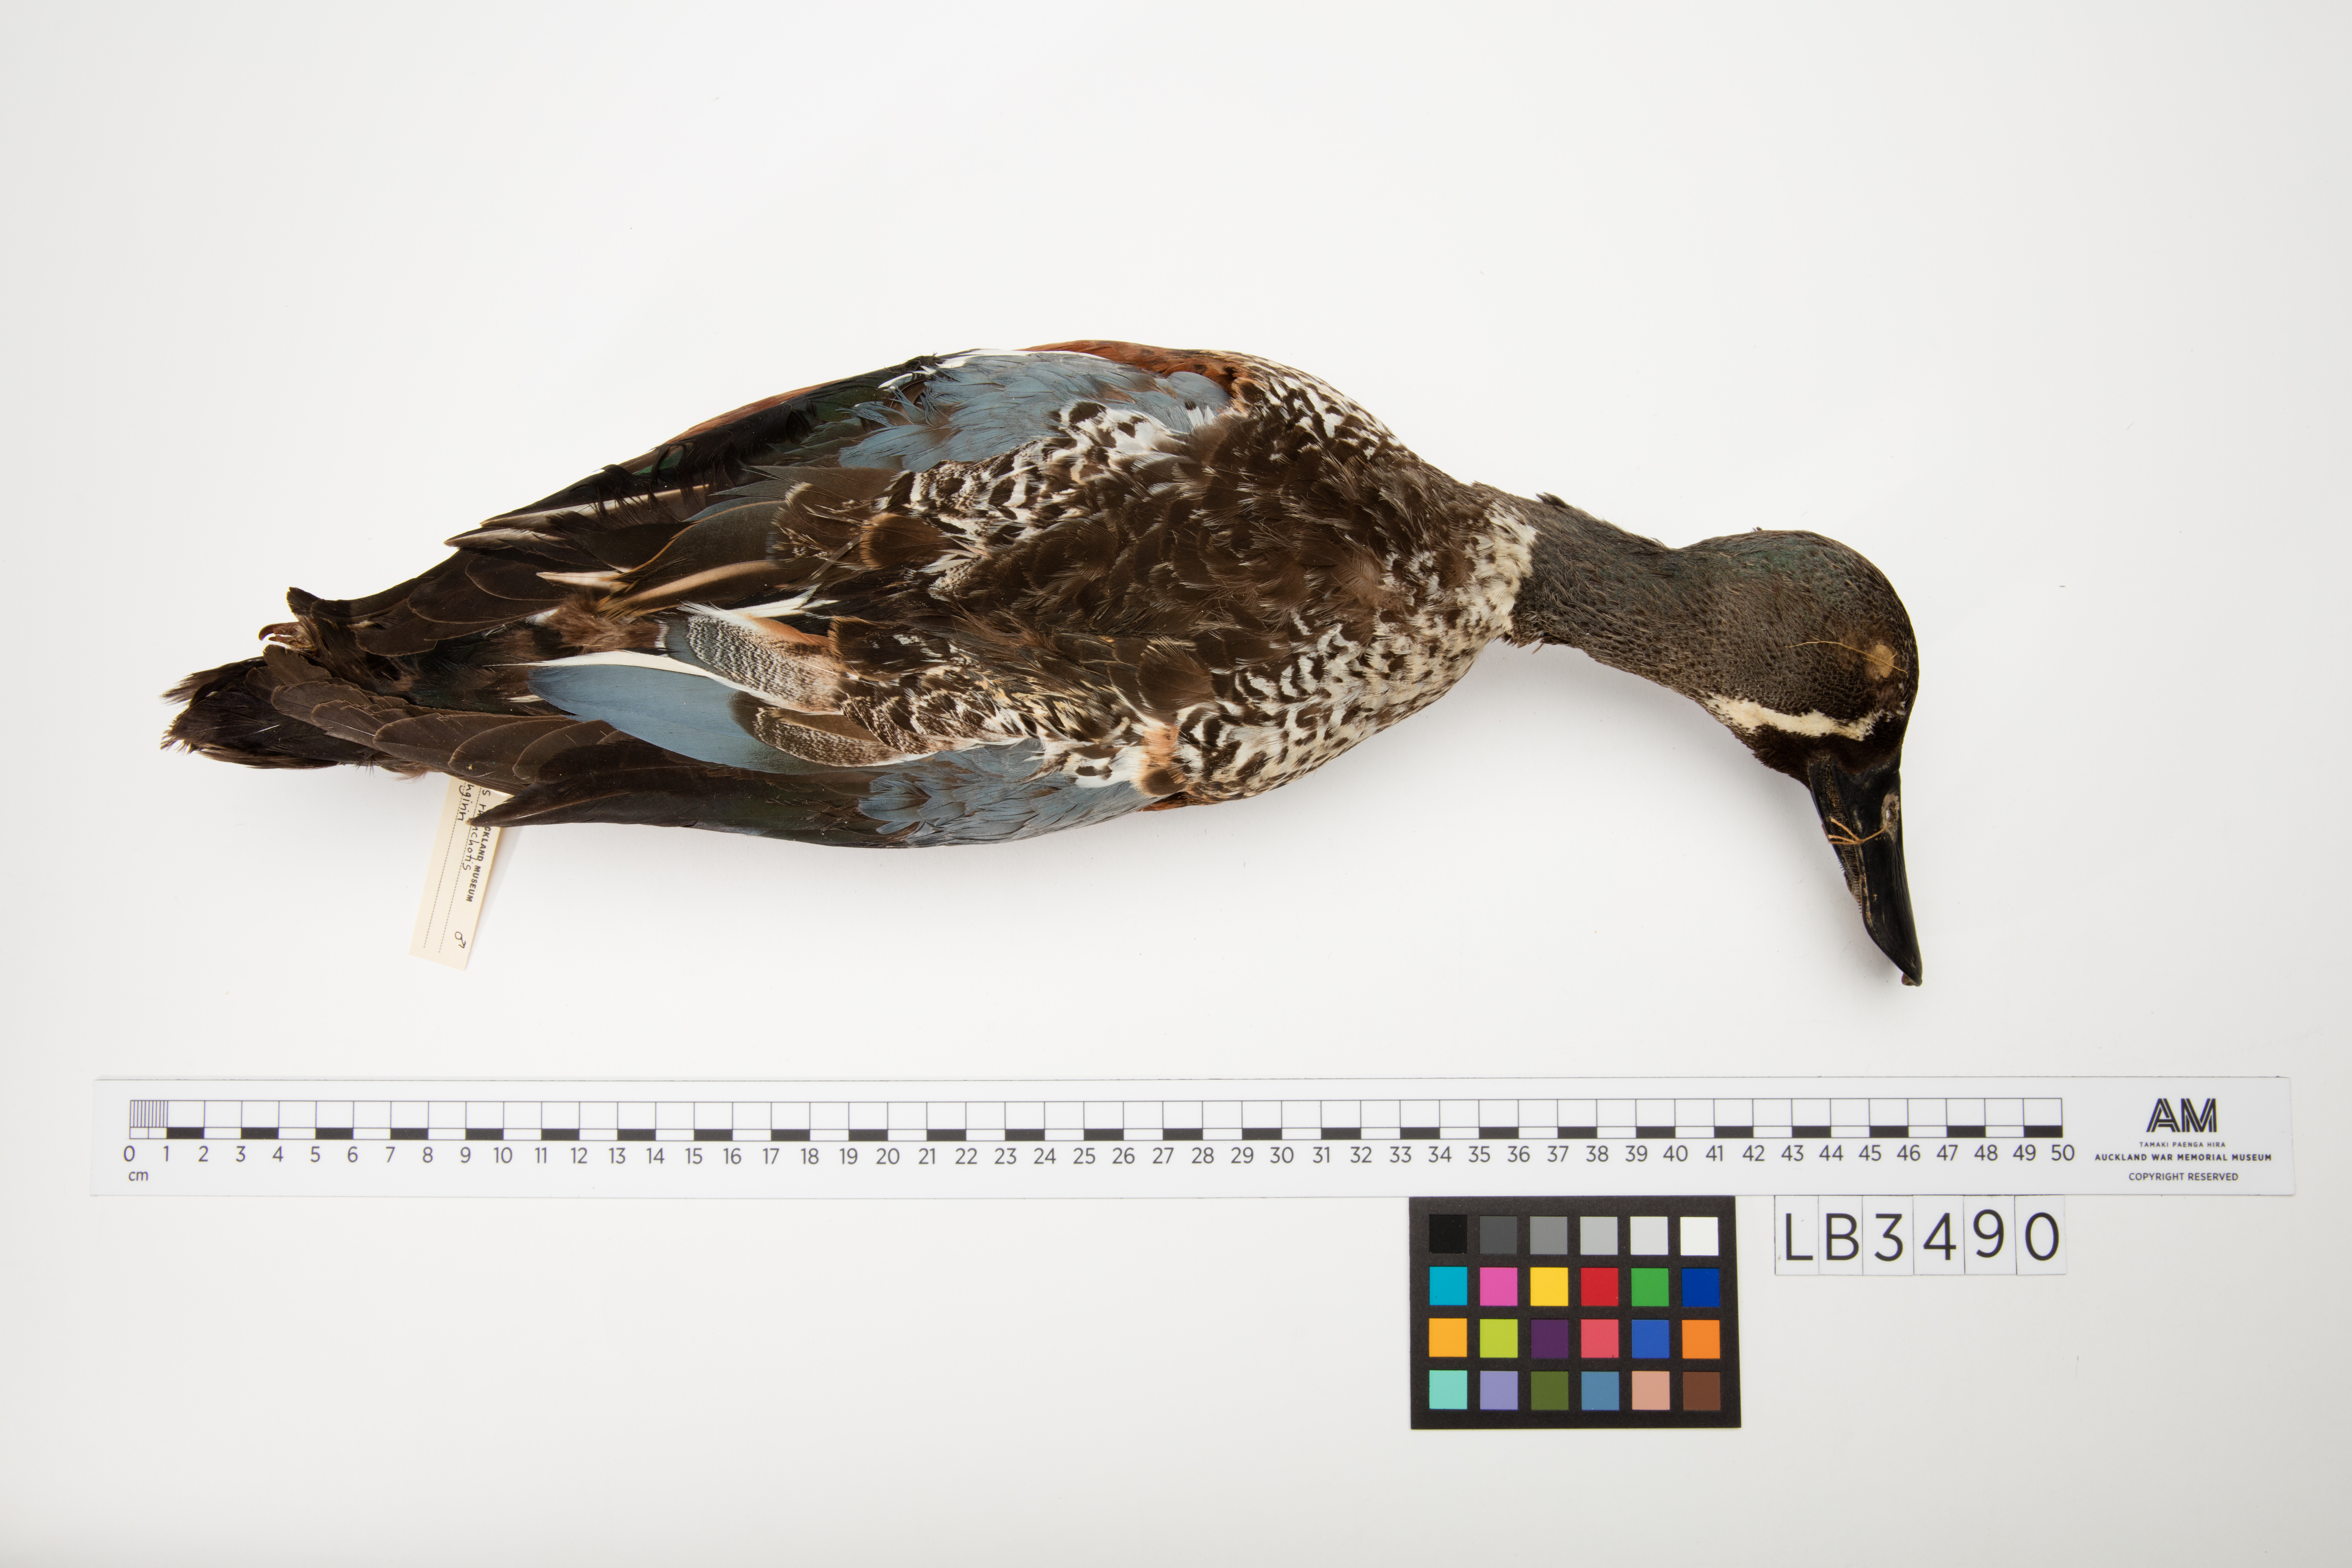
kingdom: Animalia
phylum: Chordata
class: Aves
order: Anseriformes
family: Anatidae
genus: Spatula
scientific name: Spatula rhynchotis
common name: Australian shoveler
